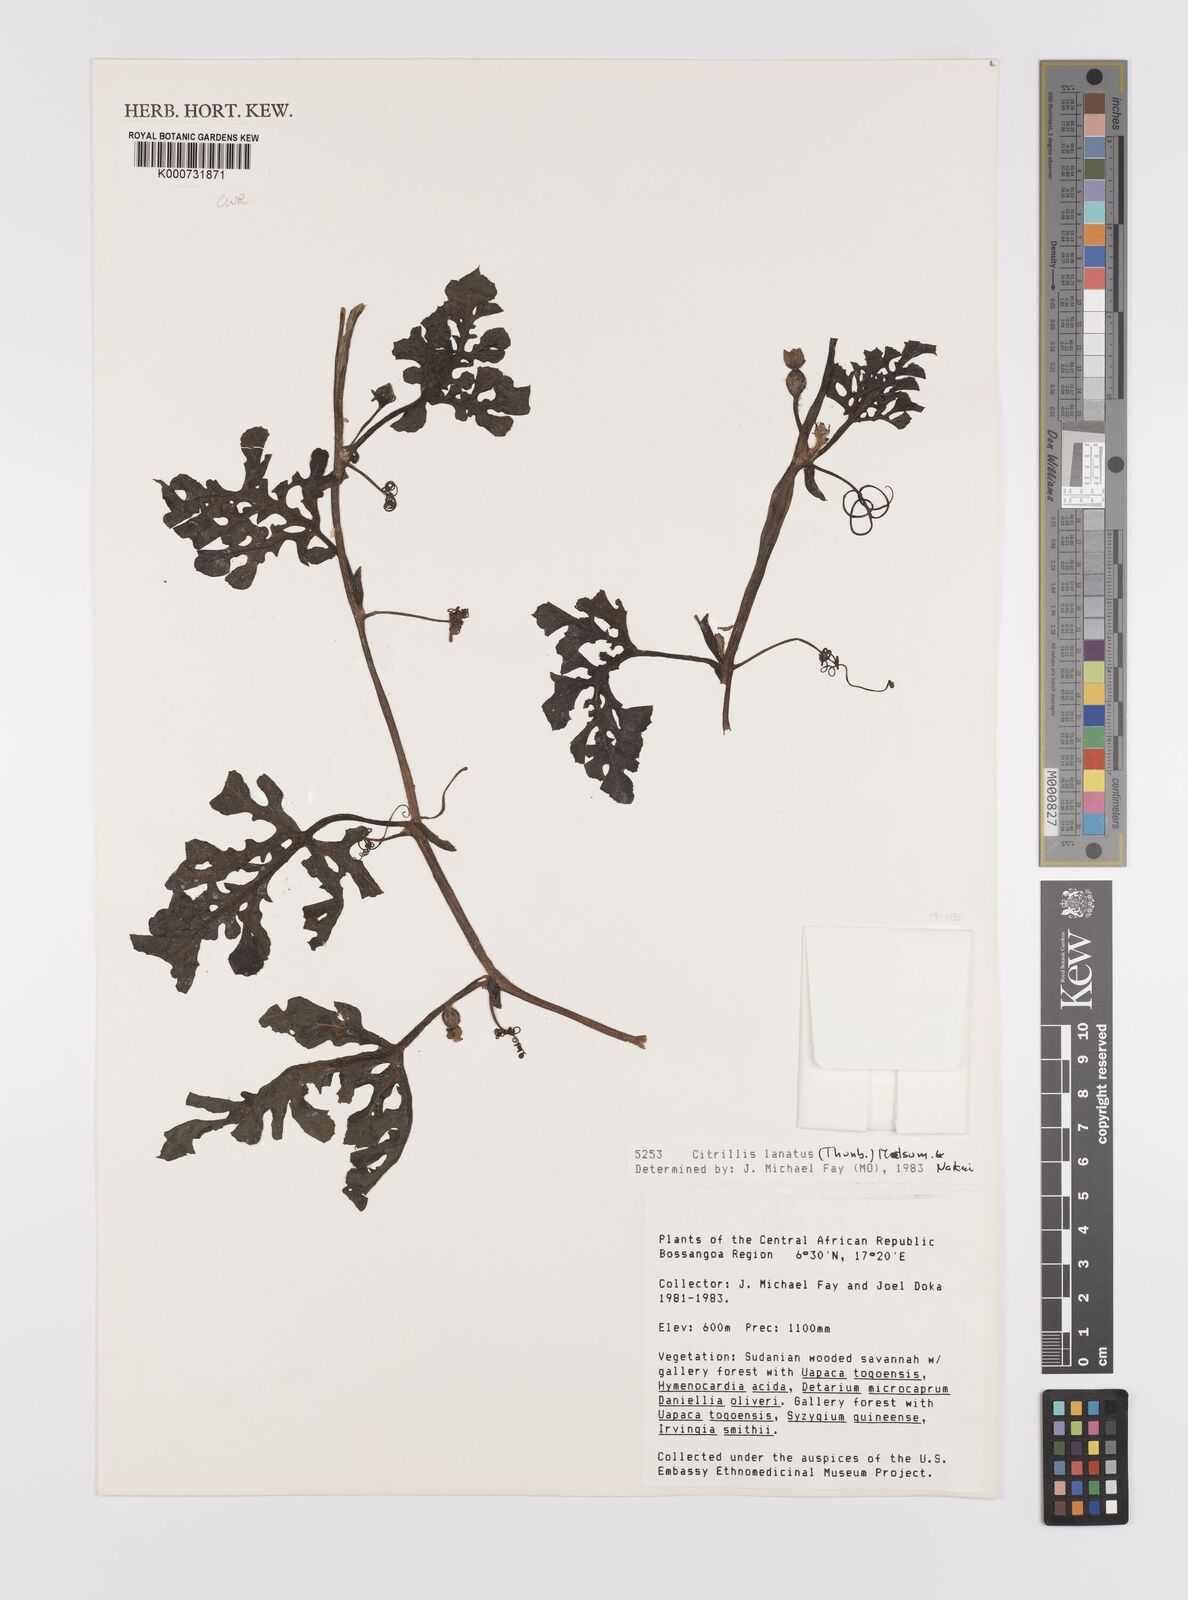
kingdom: Plantae
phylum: Tracheophyta
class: Magnoliopsida
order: Cucurbitales
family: Cucurbitaceae
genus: Citrullus
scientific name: Citrullus lanatus
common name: Watermelon
